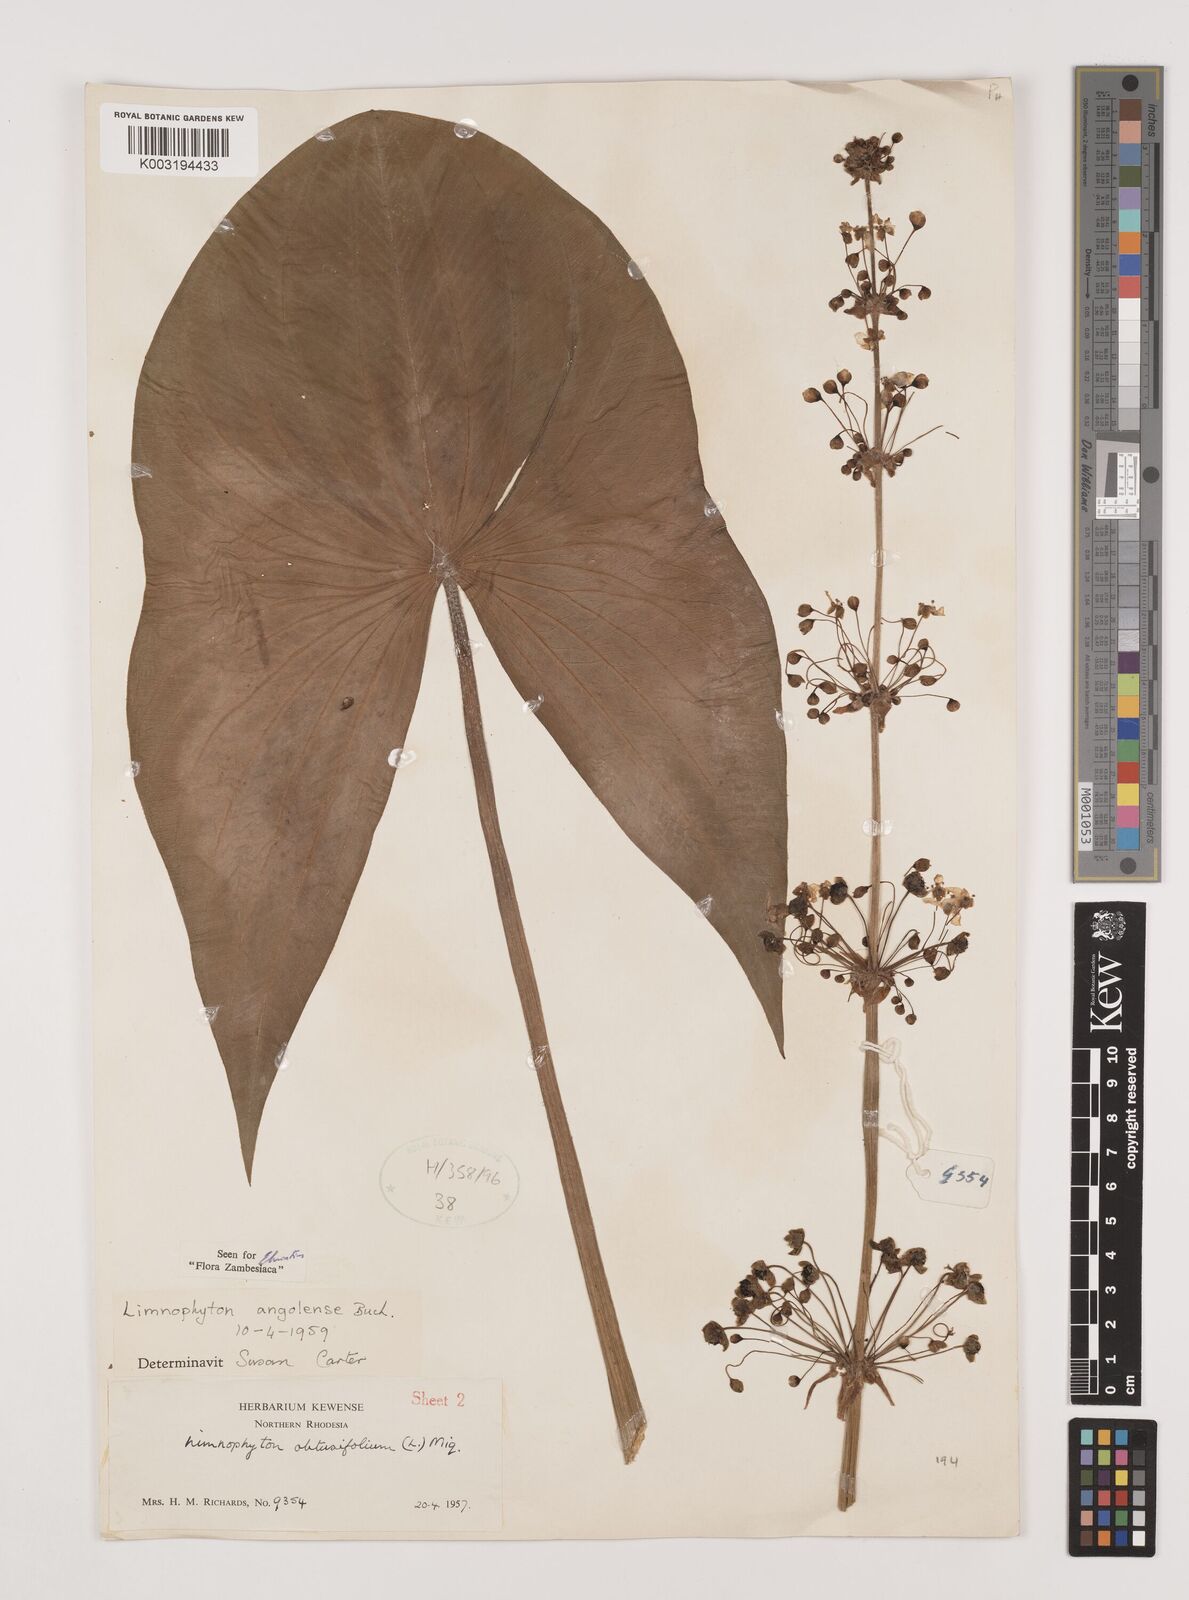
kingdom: Plantae
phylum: Tracheophyta
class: Liliopsida
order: Alismatales
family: Alismataceae
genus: Limnophyton
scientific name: Limnophyton
